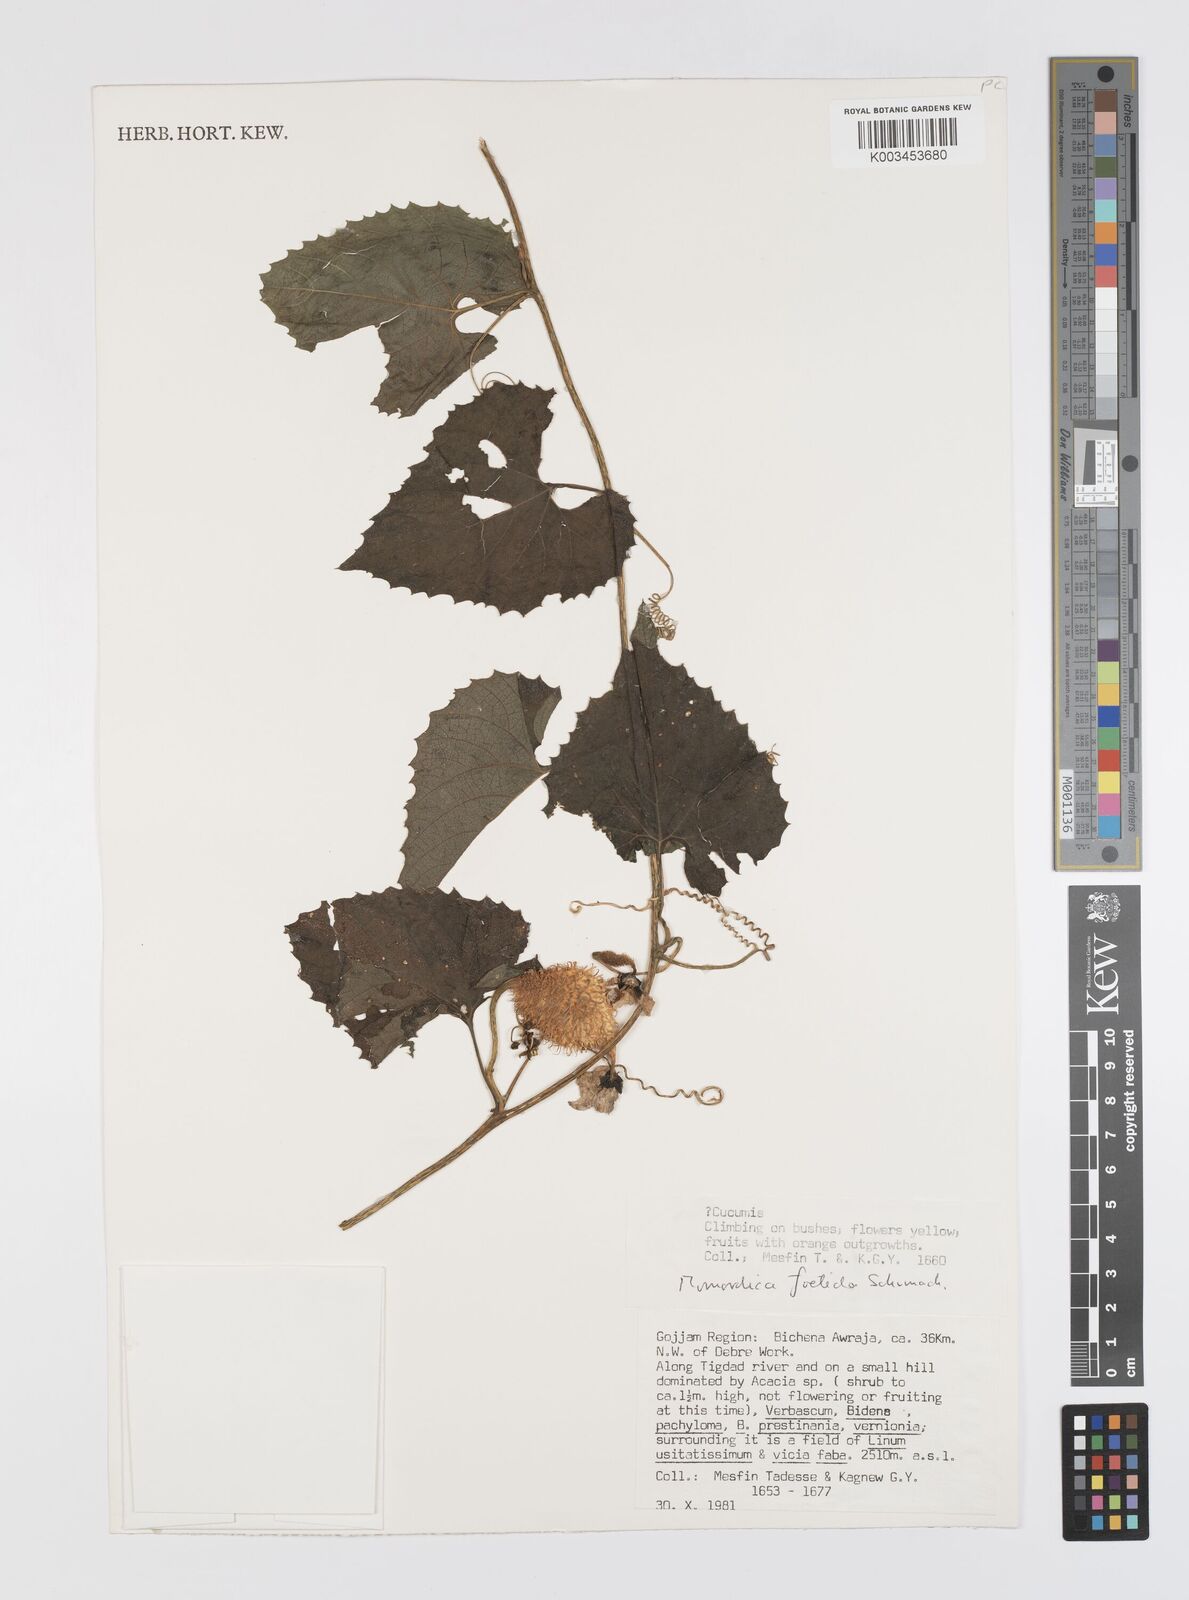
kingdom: Plantae
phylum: Tracheophyta
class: Magnoliopsida
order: Cucurbitales
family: Cucurbitaceae
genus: Momordica
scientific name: Momordica foetida
